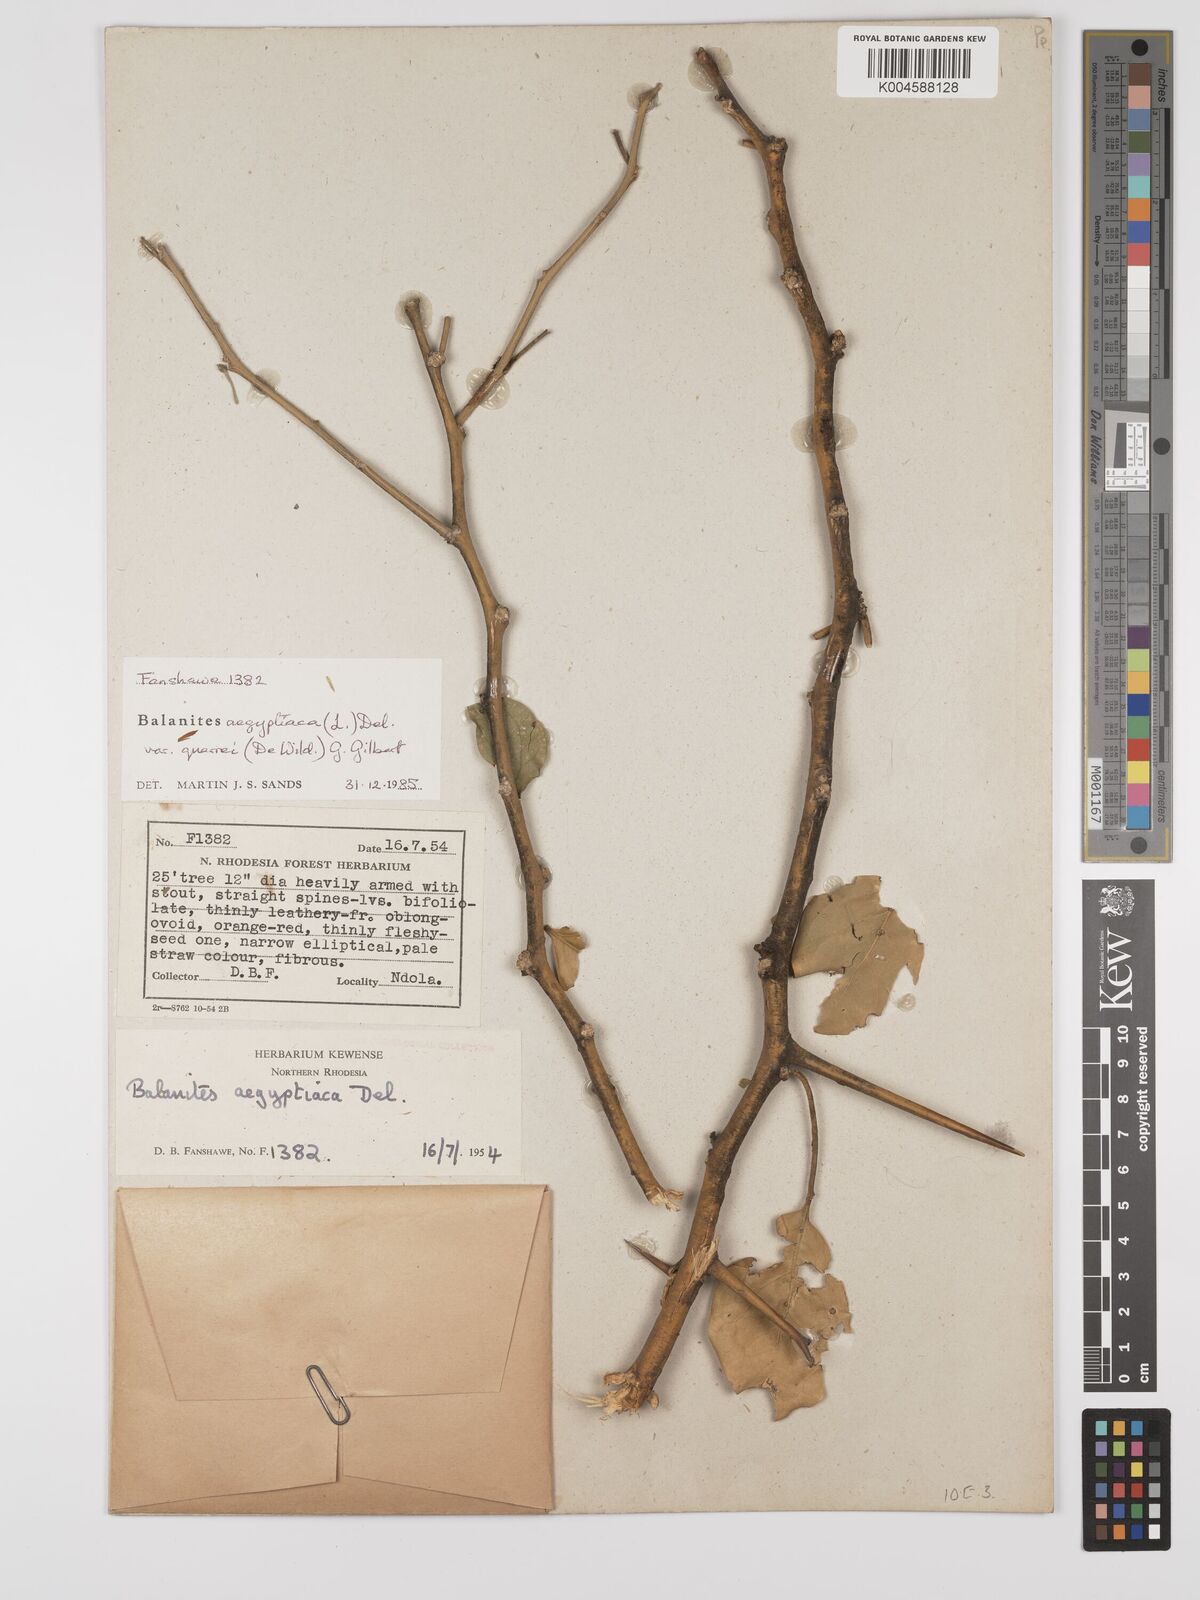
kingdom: Plantae
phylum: Tracheophyta
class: Magnoliopsida
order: Zygophyllales
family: Zygophyllaceae
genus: Balanites
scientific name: Balanites aegyptiaca
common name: Balanites
